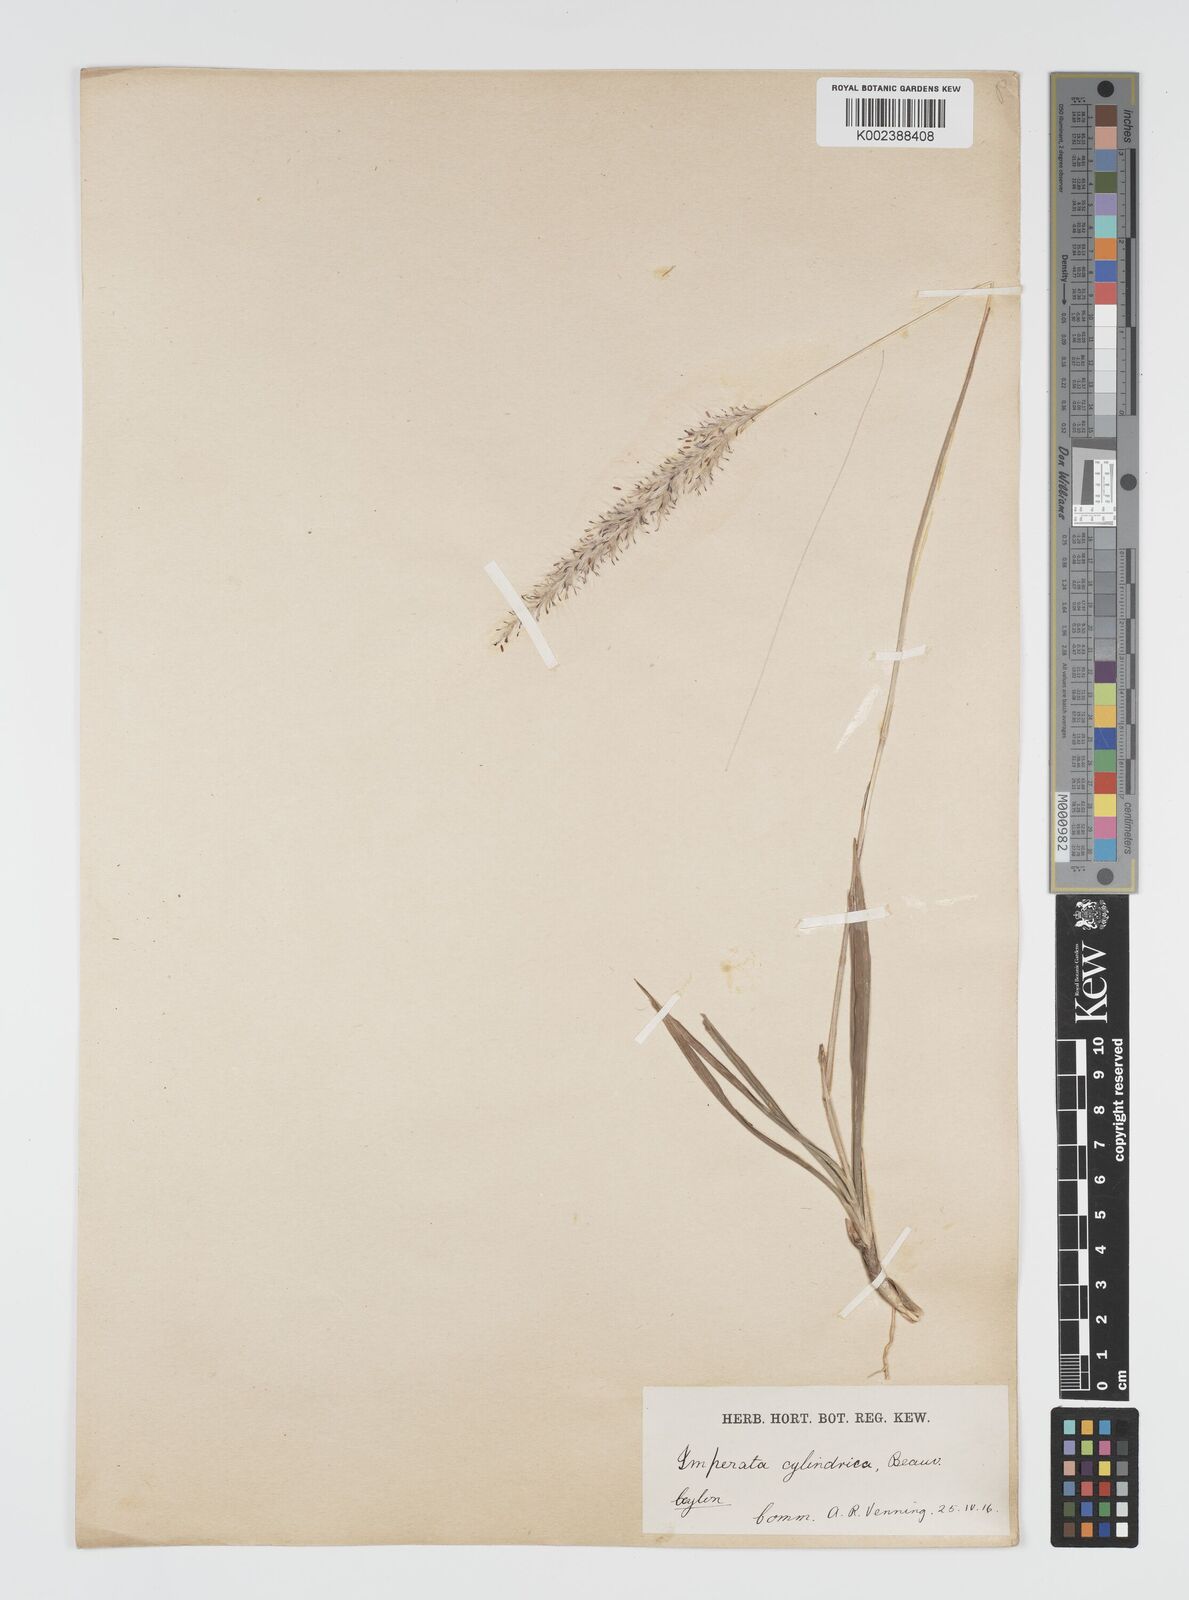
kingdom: Plantae
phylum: Tracheophyta
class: Liliopsida
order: Poales
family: Poaceae
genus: Imperata
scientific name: Imperata cylindrica
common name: Cogongrass
